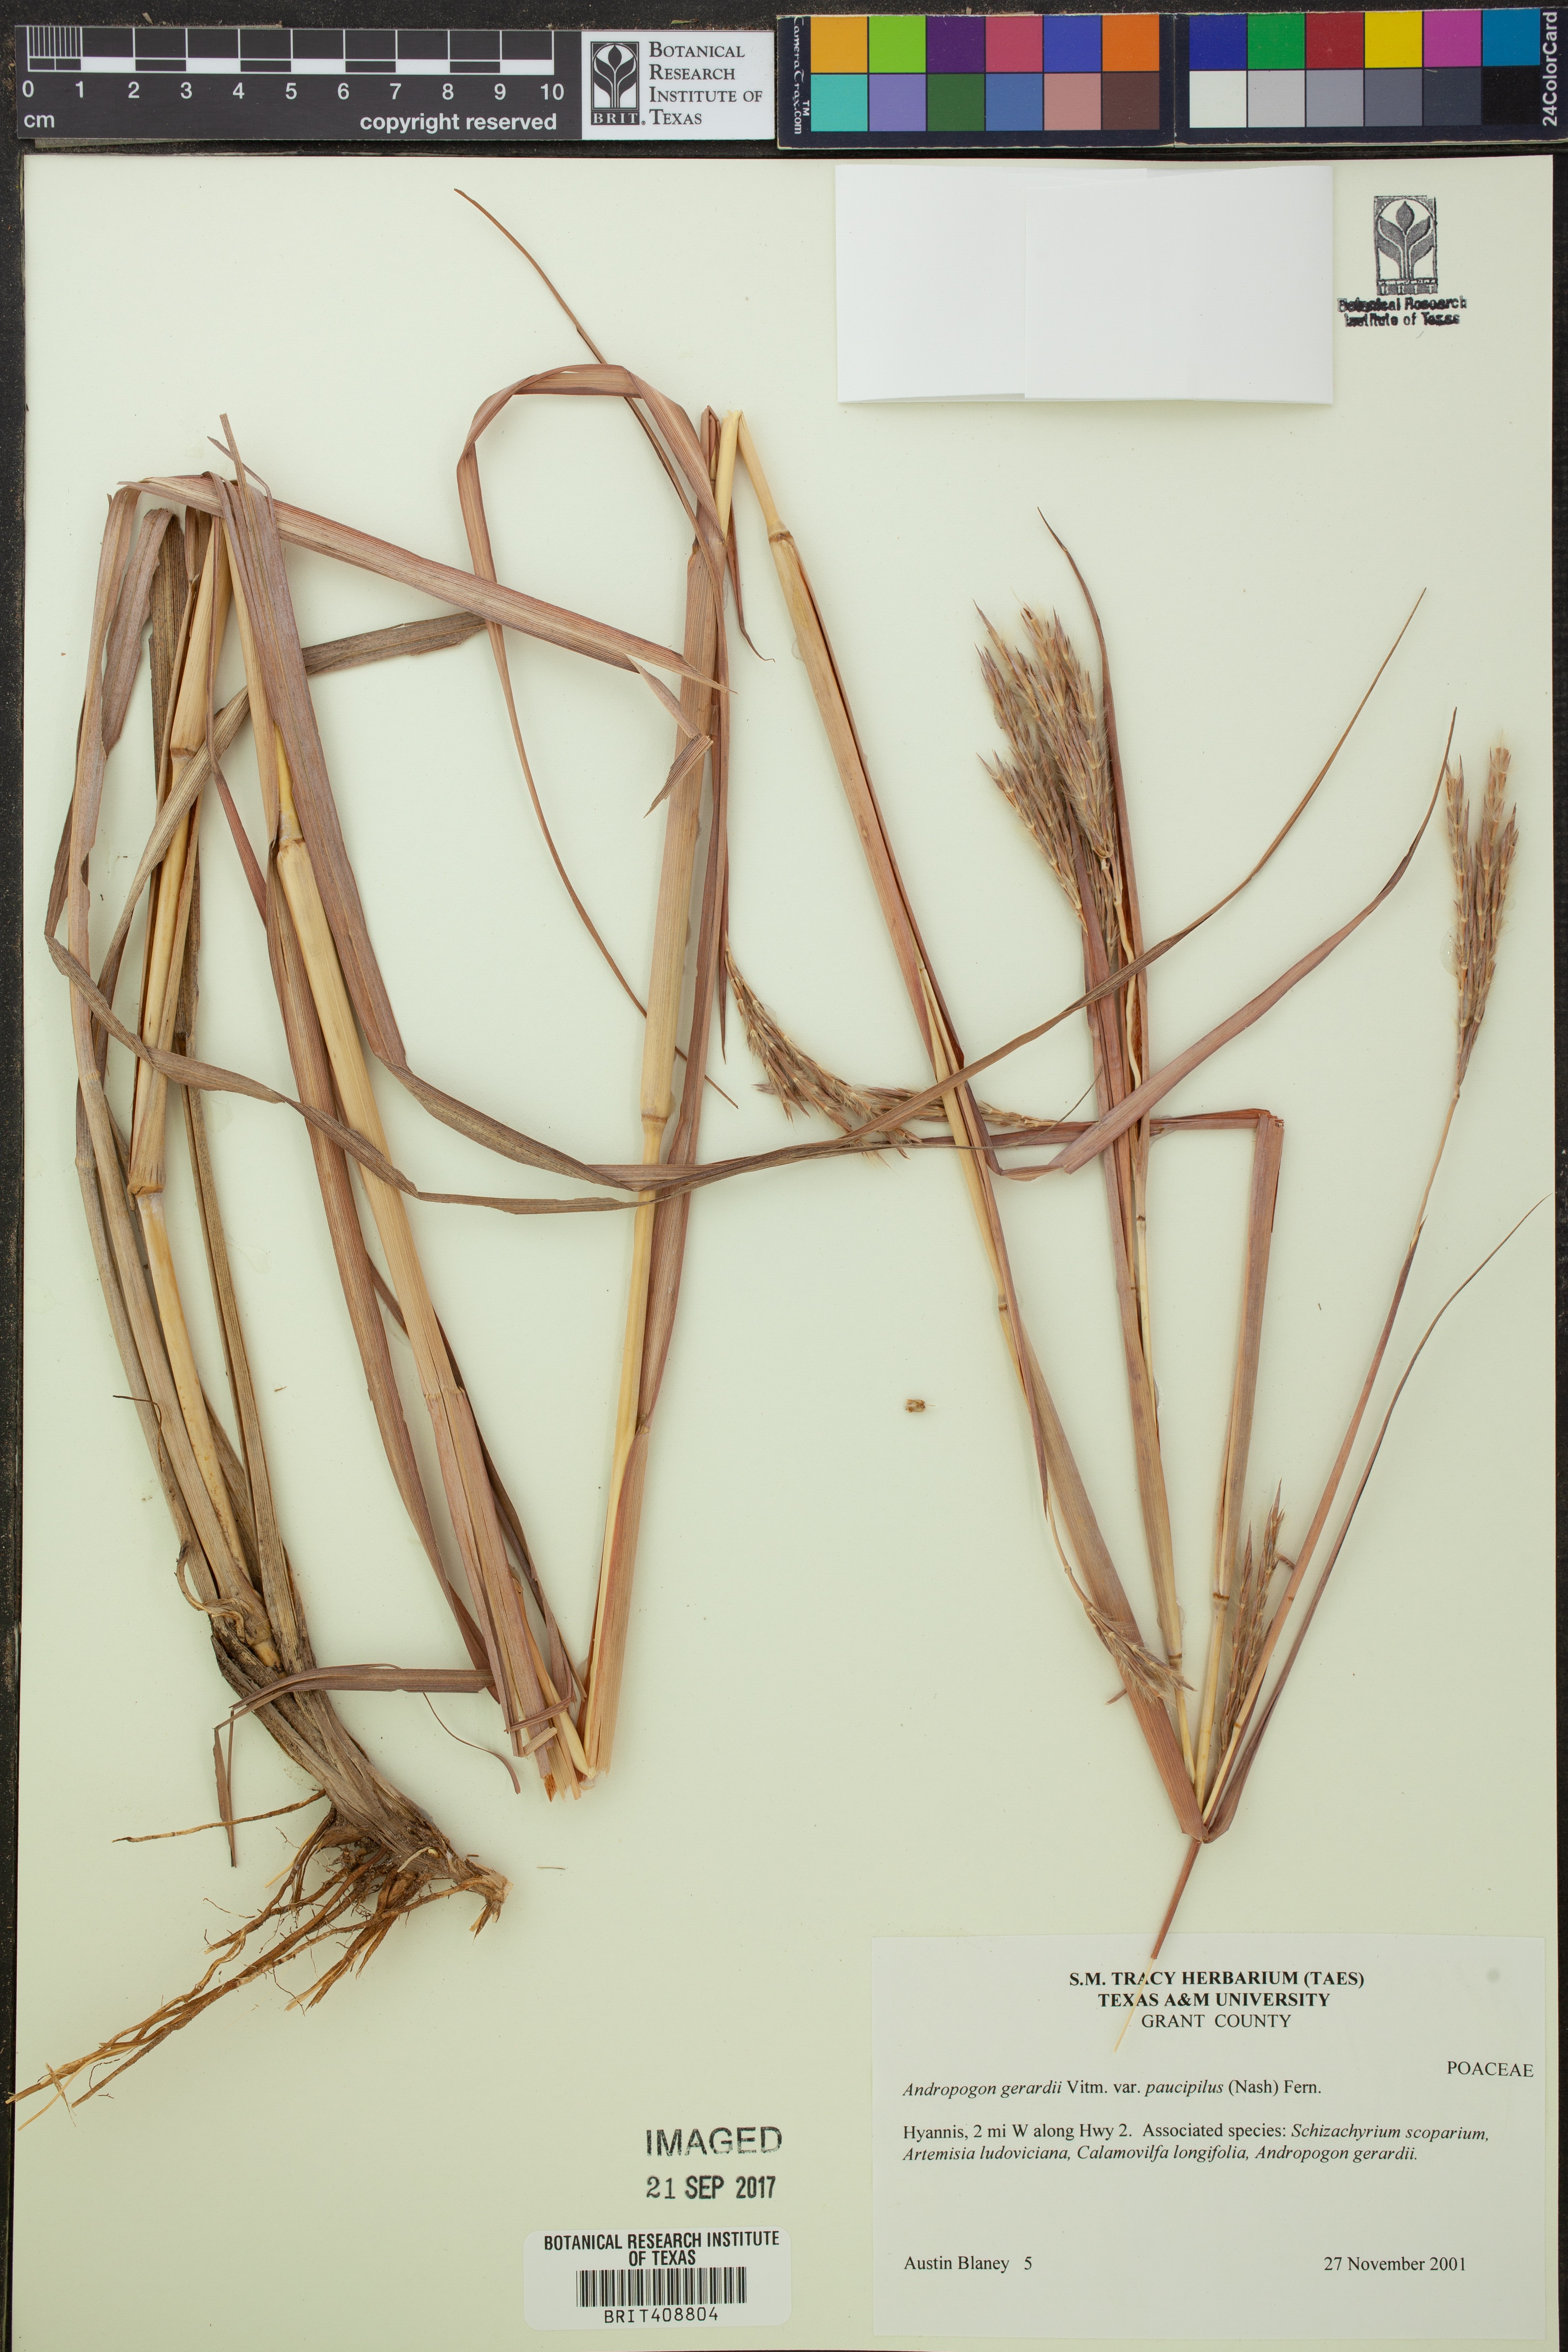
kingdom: Plantae
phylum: Tracheophyta
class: Liliopsida
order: Poales
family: Poaceae
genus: Andropogon
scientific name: Andropogon hallii
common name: Sand bluestem
